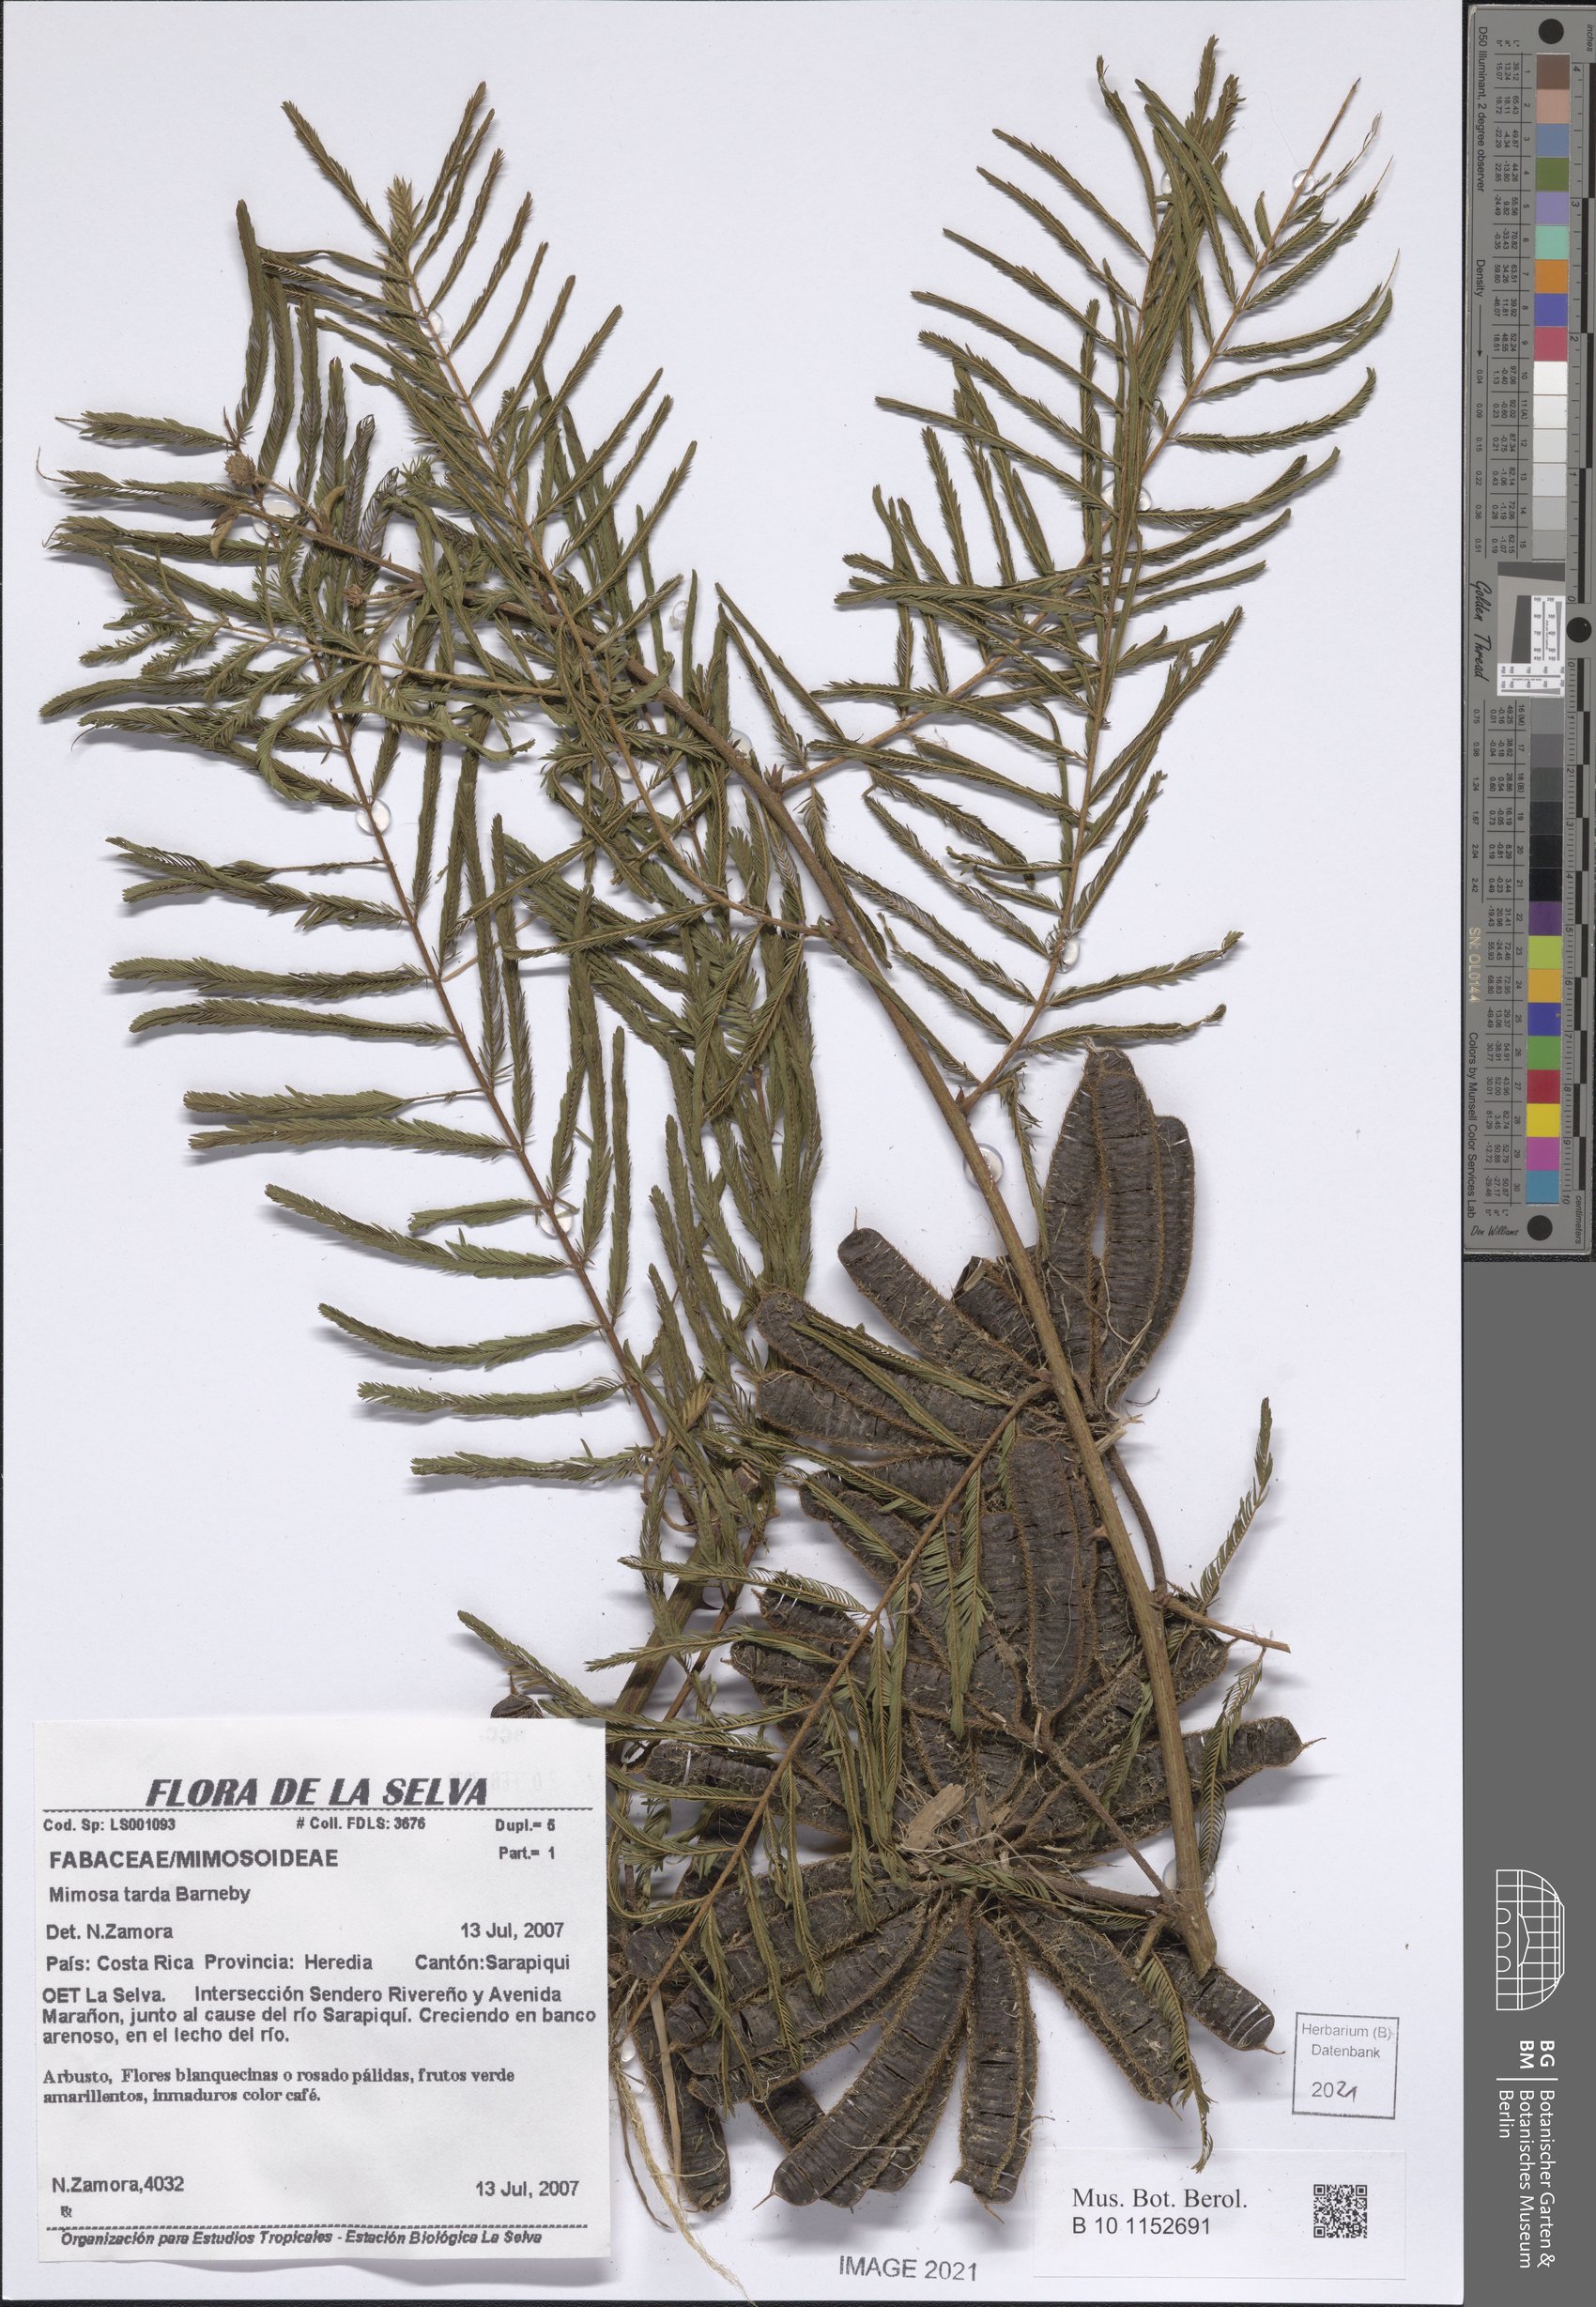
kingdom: Plantae
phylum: Tracheophyta
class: Magnoliopsida
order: Fabales
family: Fabaceae
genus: Mimosa
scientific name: Mimosa tarda
